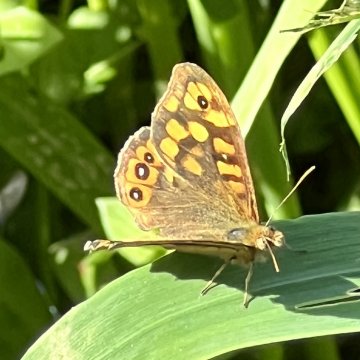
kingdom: Animalia
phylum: Arthropoda
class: Insecta
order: Lepidoptera
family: Nymphalidae
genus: Pararge
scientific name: Pararge aegeria
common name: Speckled Wood Butterfly
